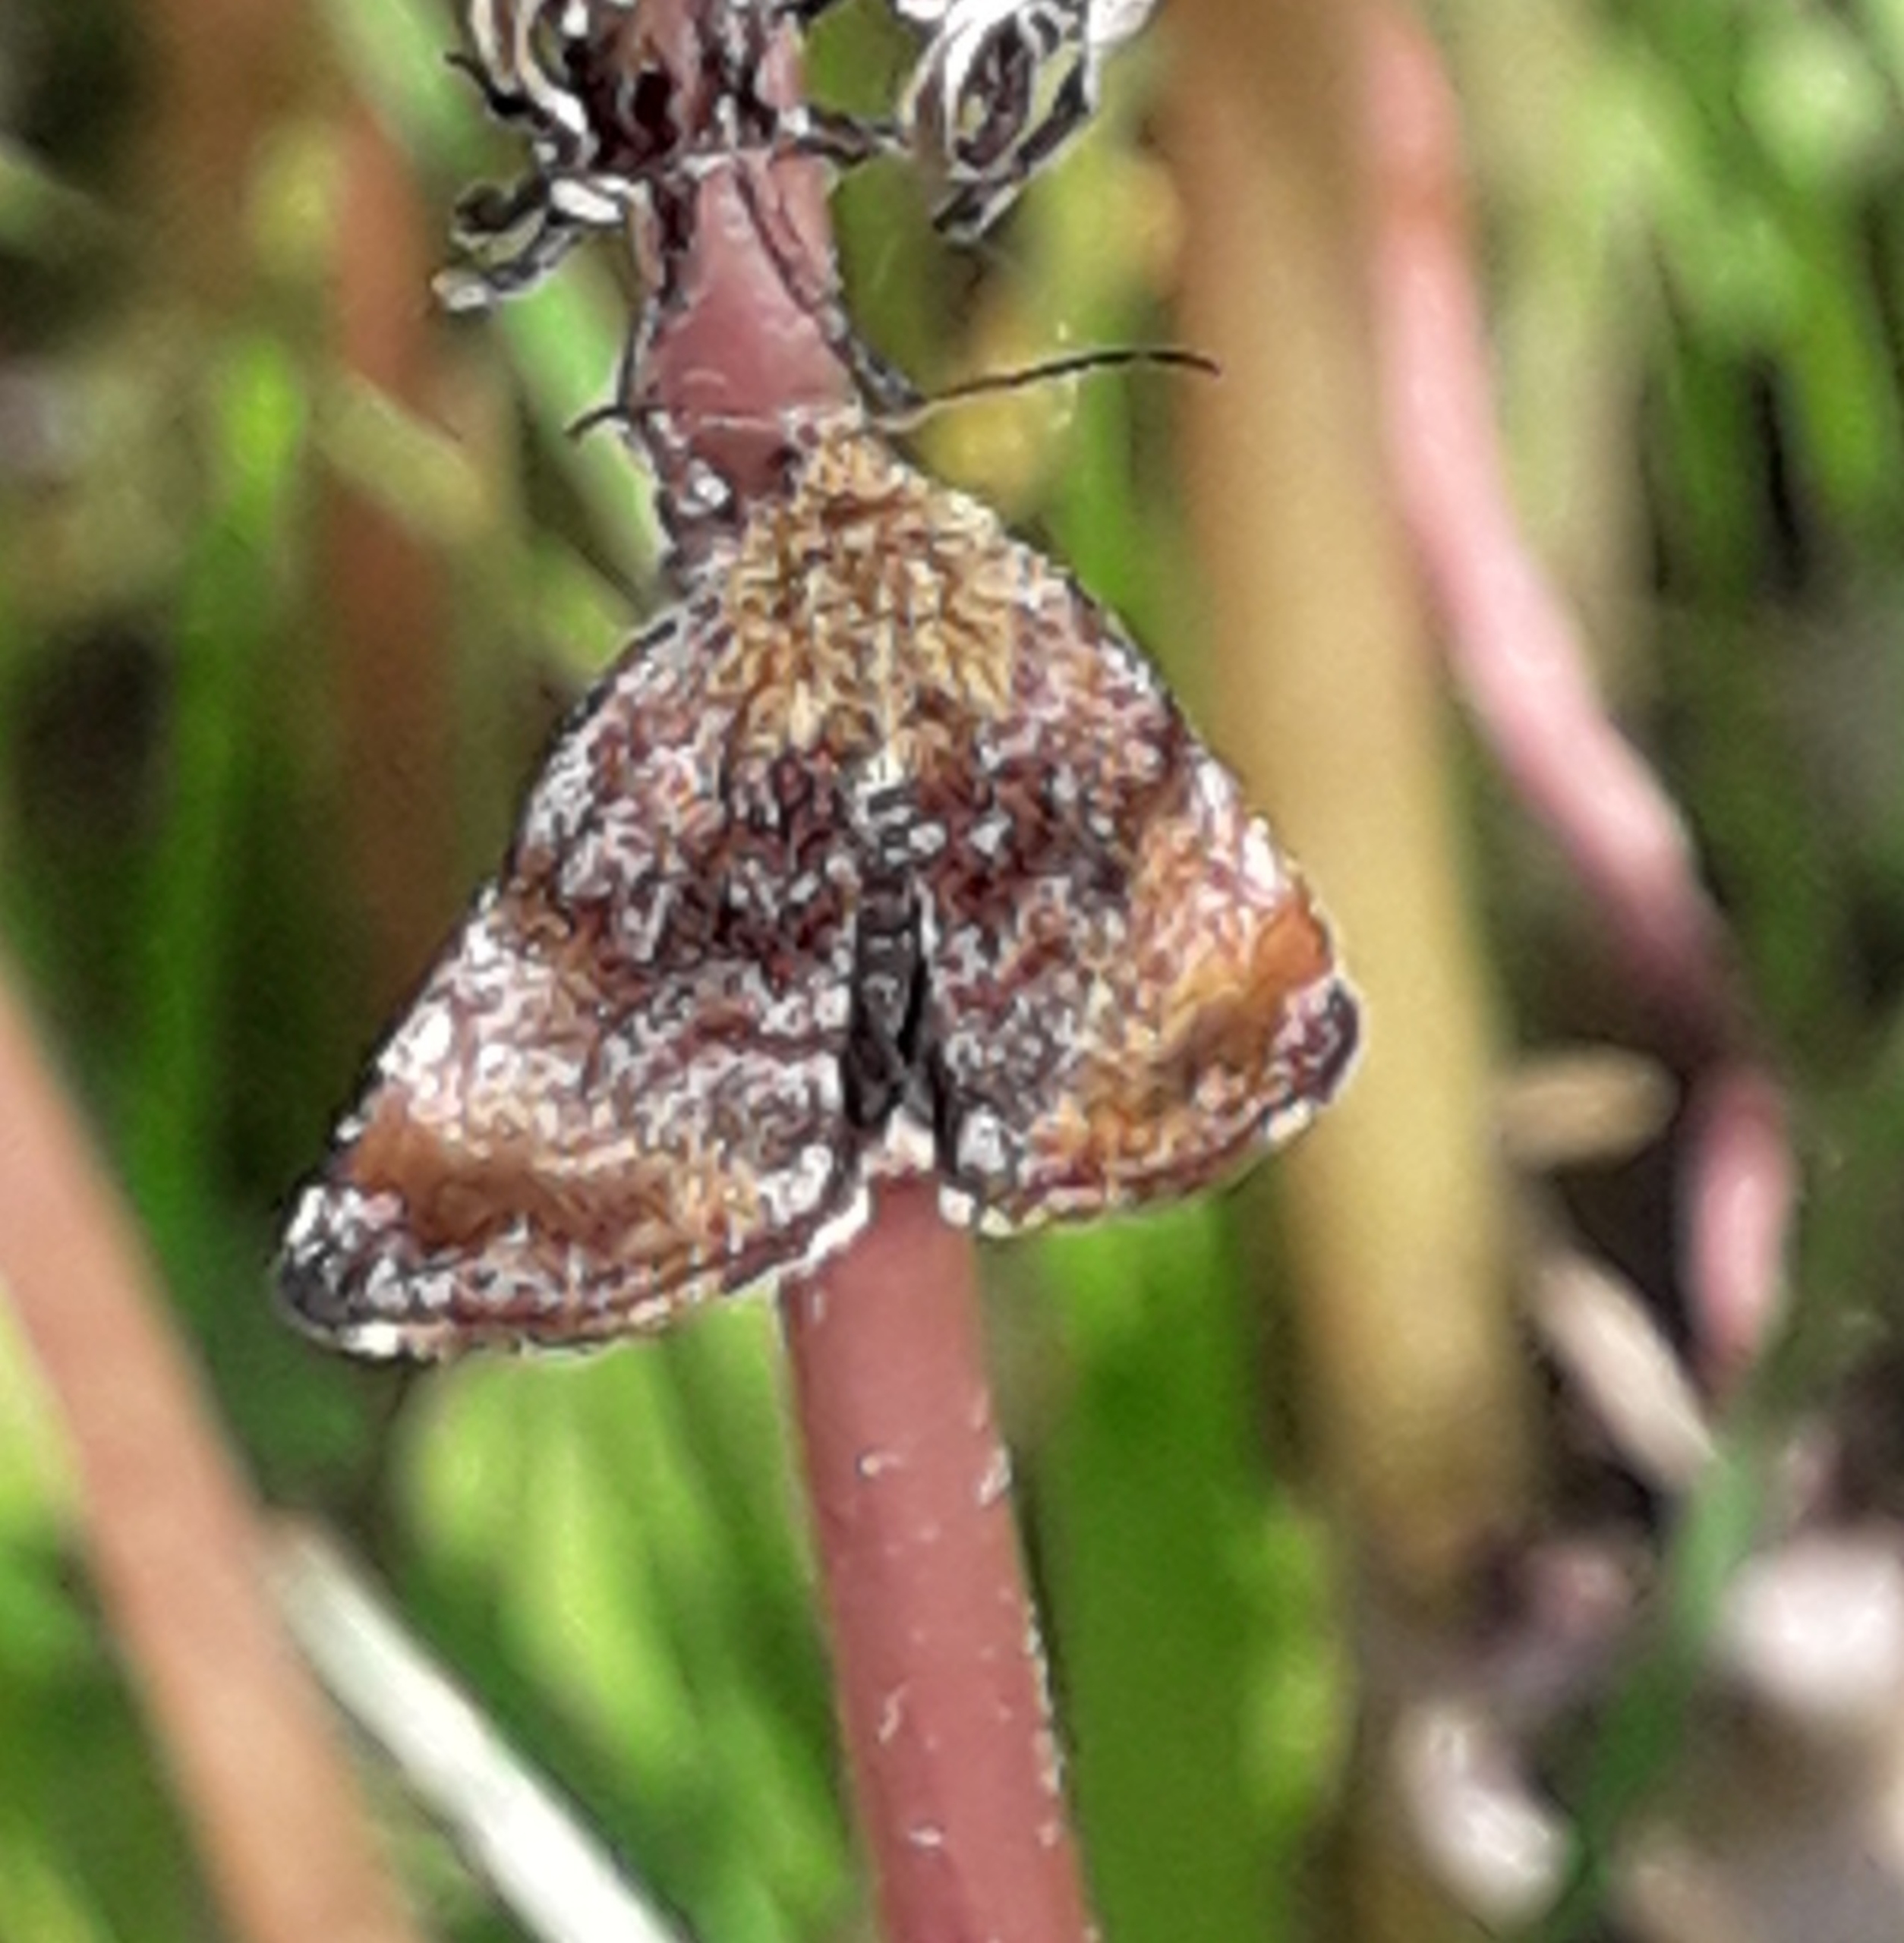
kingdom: Animalia
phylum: Arthropoda
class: Insecta
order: Lepidoptera
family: Noctuidae
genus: Panemeria
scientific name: Panemeria tenebrata
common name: Hønsetarm-glansugle
